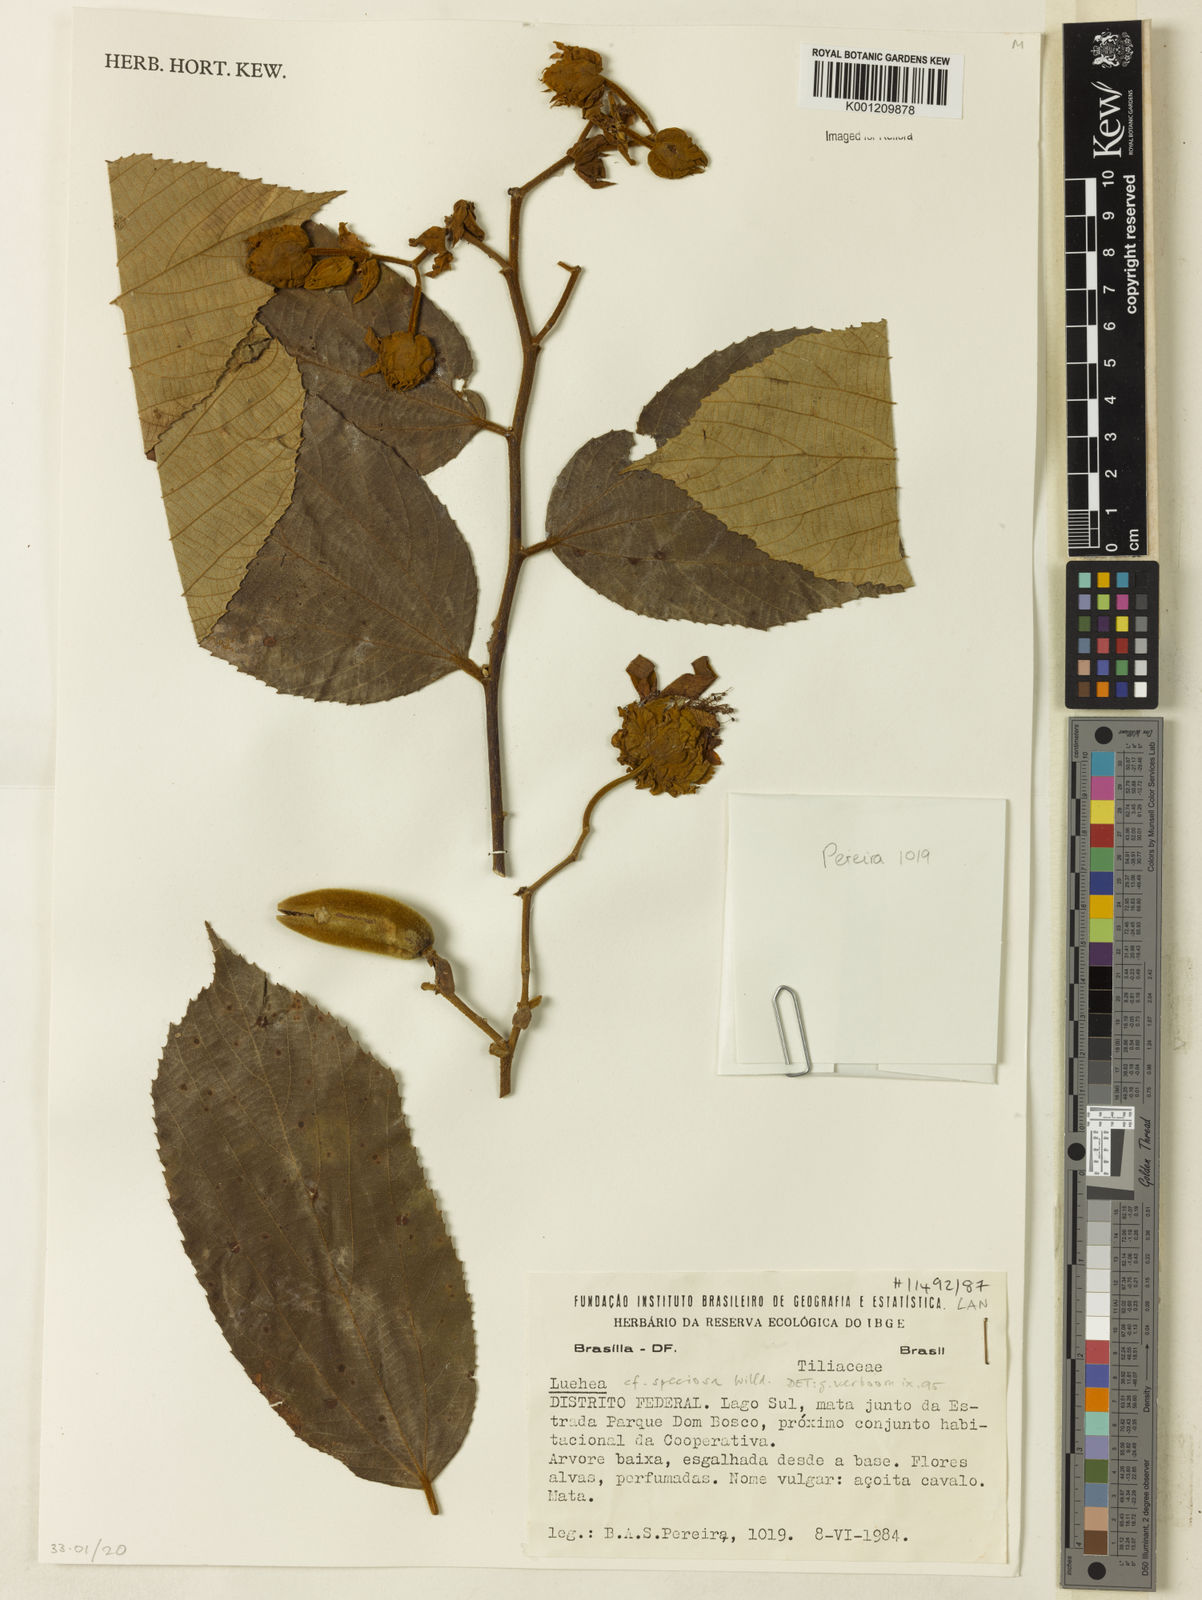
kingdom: Plantae
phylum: Tracheophyta
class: Magnoliopsida
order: Malvales
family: Malvaceae
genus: Luehea
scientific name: Luehea speciosa
